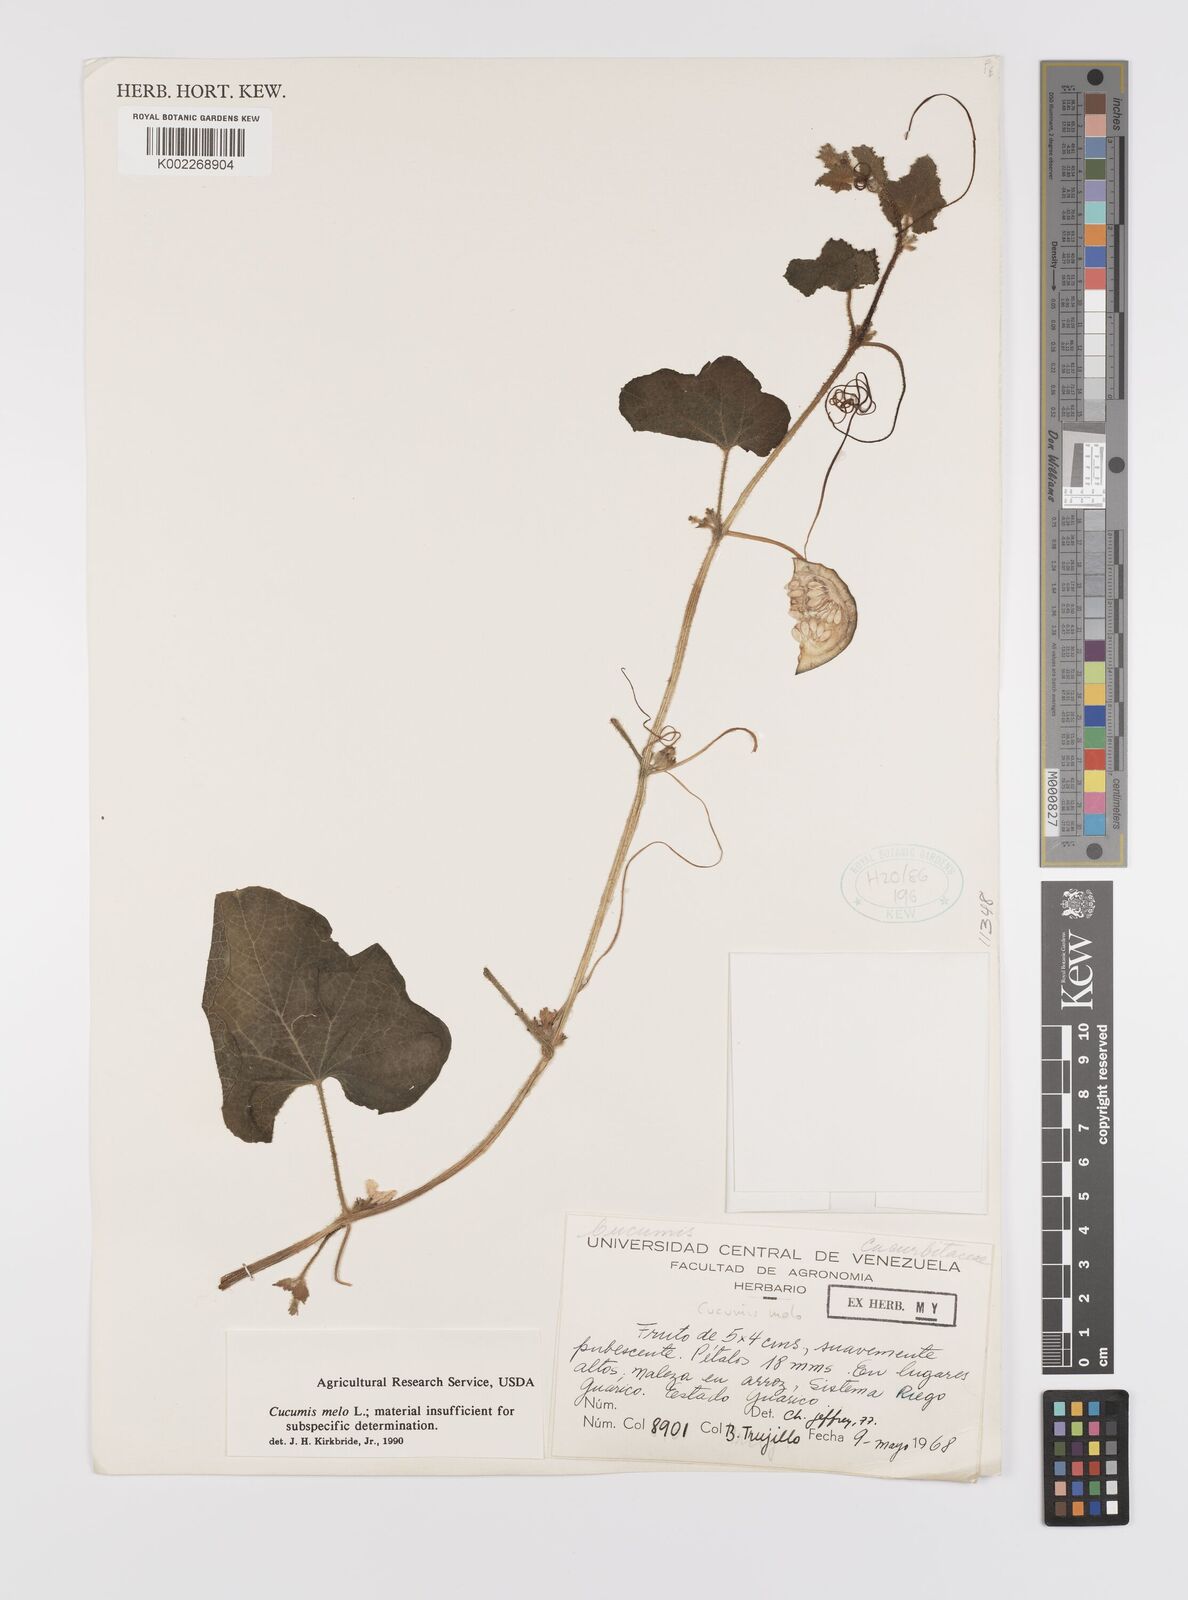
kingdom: Plantae
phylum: Tracheophyta
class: Magnoliopsida
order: Cucurbitales
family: Cucurbitaceae
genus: Cucumis
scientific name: Cucumis melo
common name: Melon
